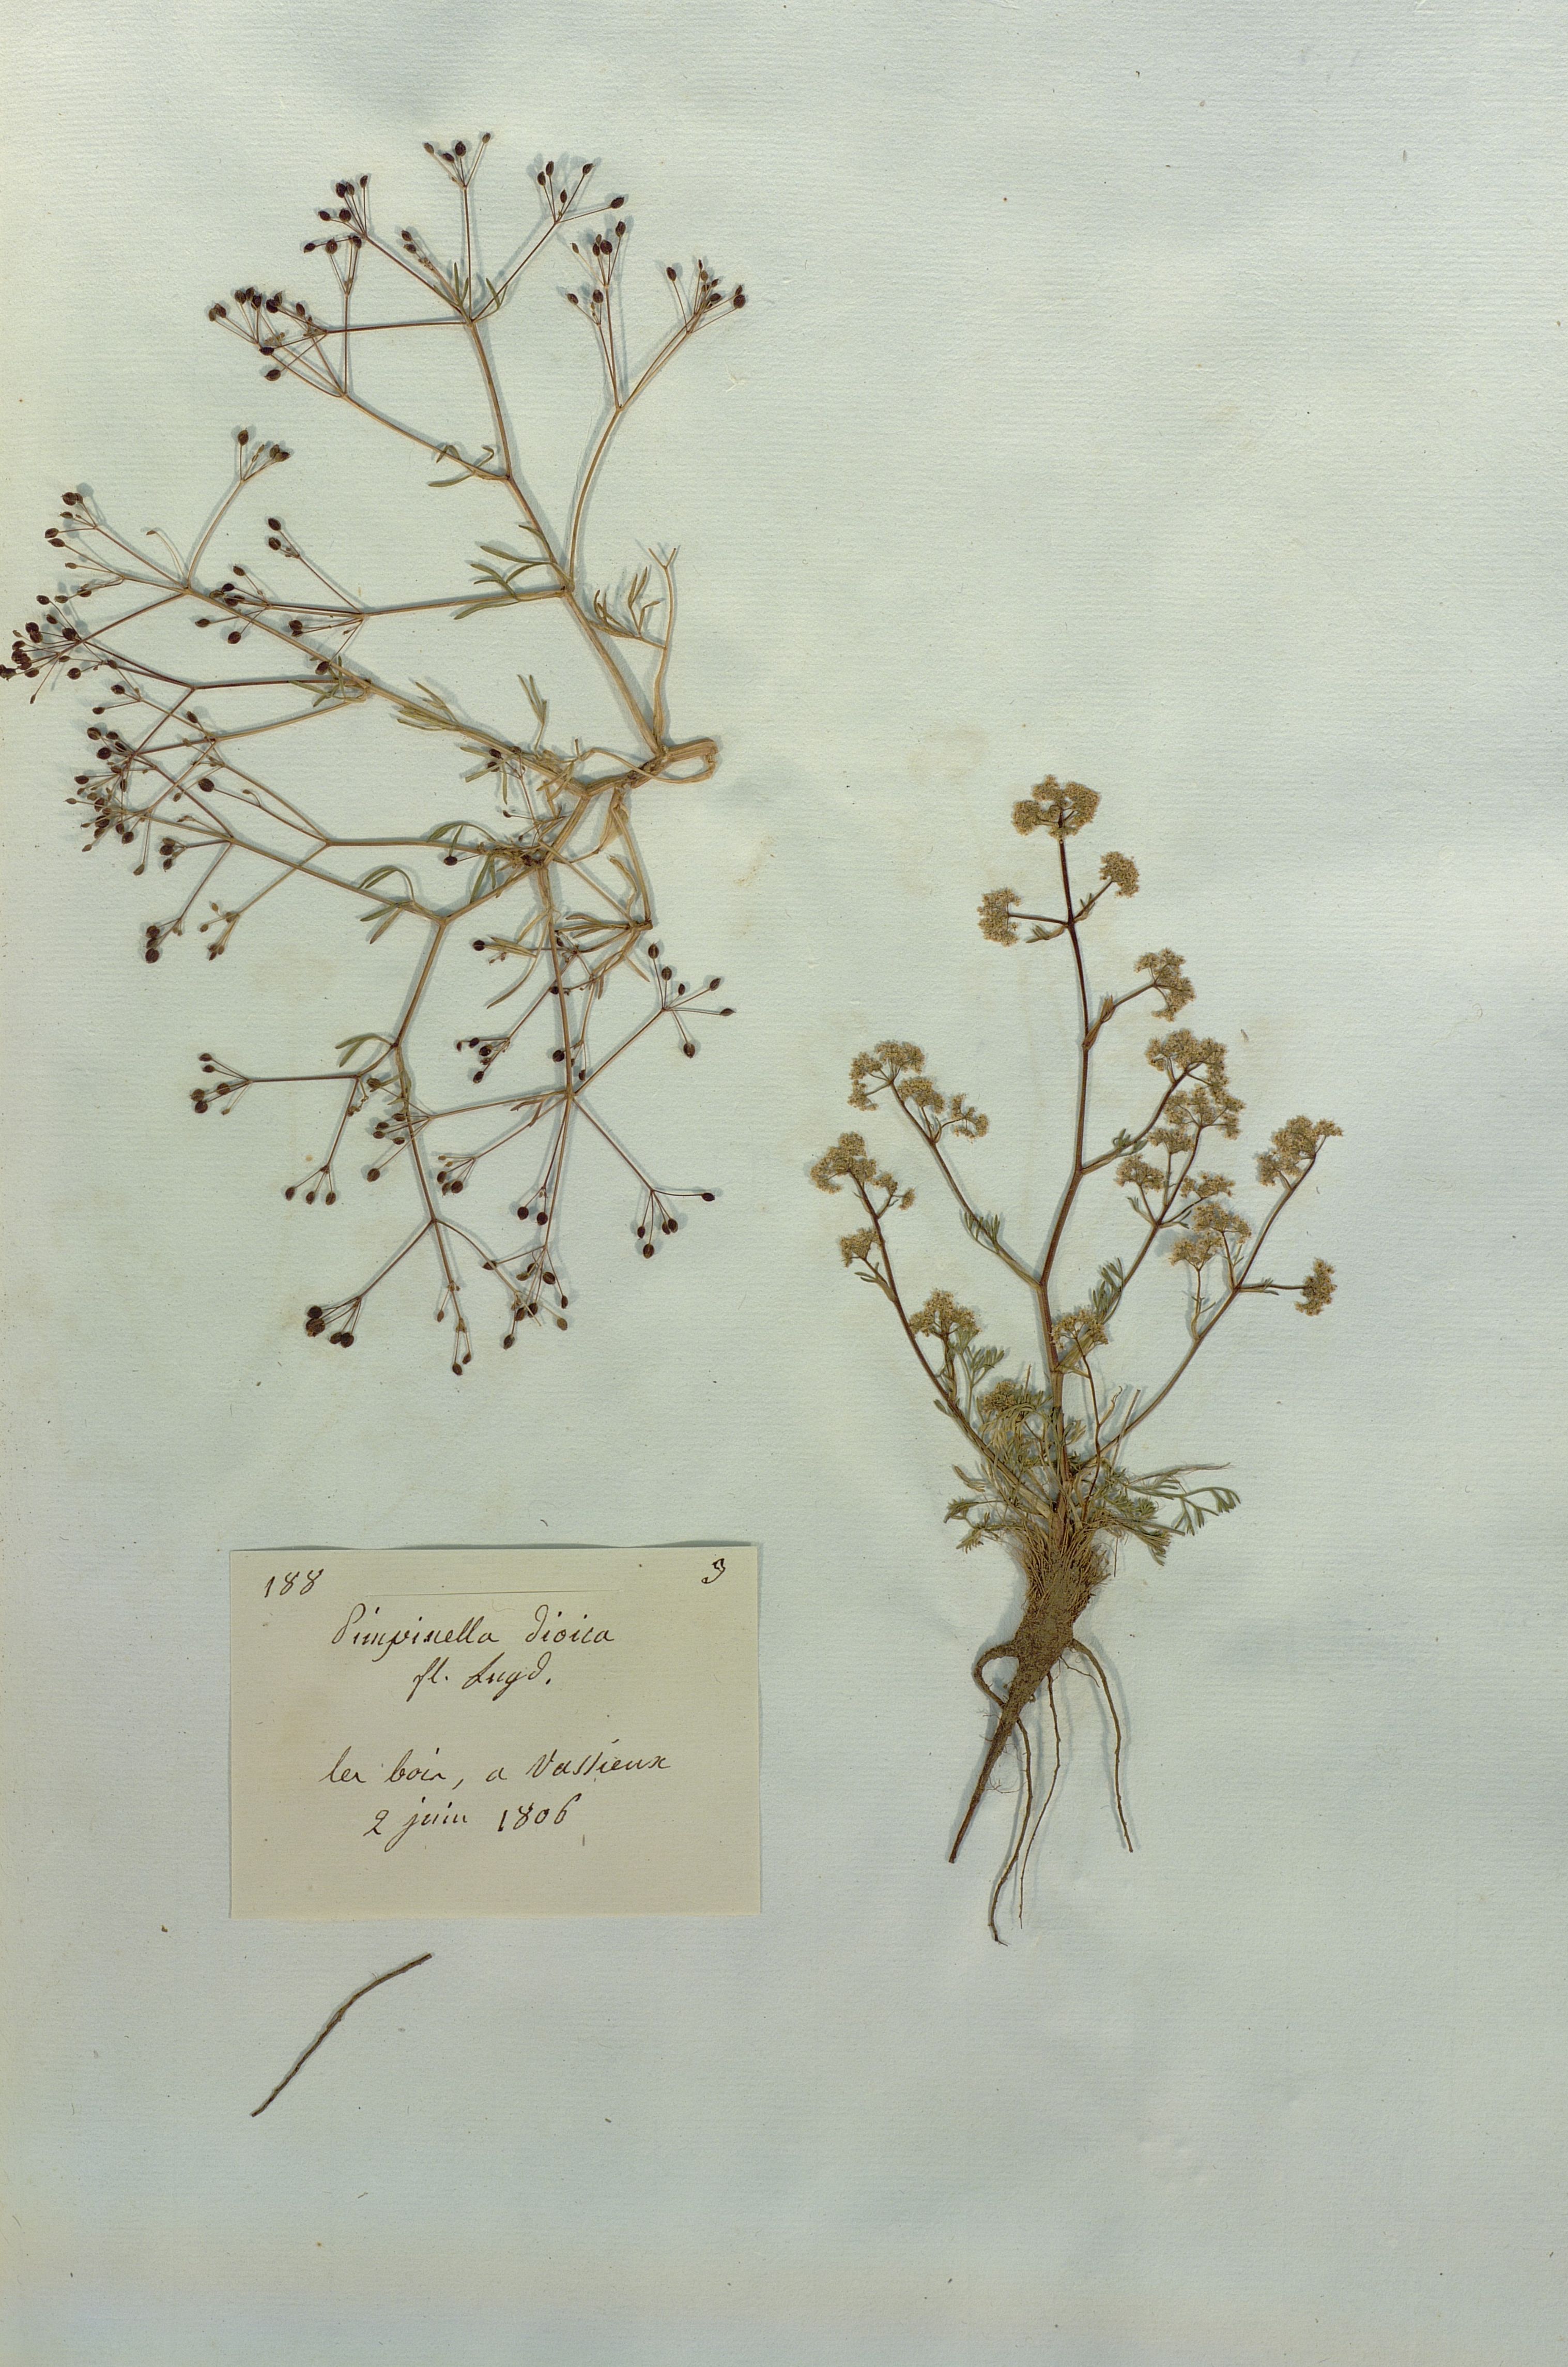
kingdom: Plantae
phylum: Tracheophyta
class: Magnoliopsida
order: Apiales
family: Apiaceae
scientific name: Apiaceae
